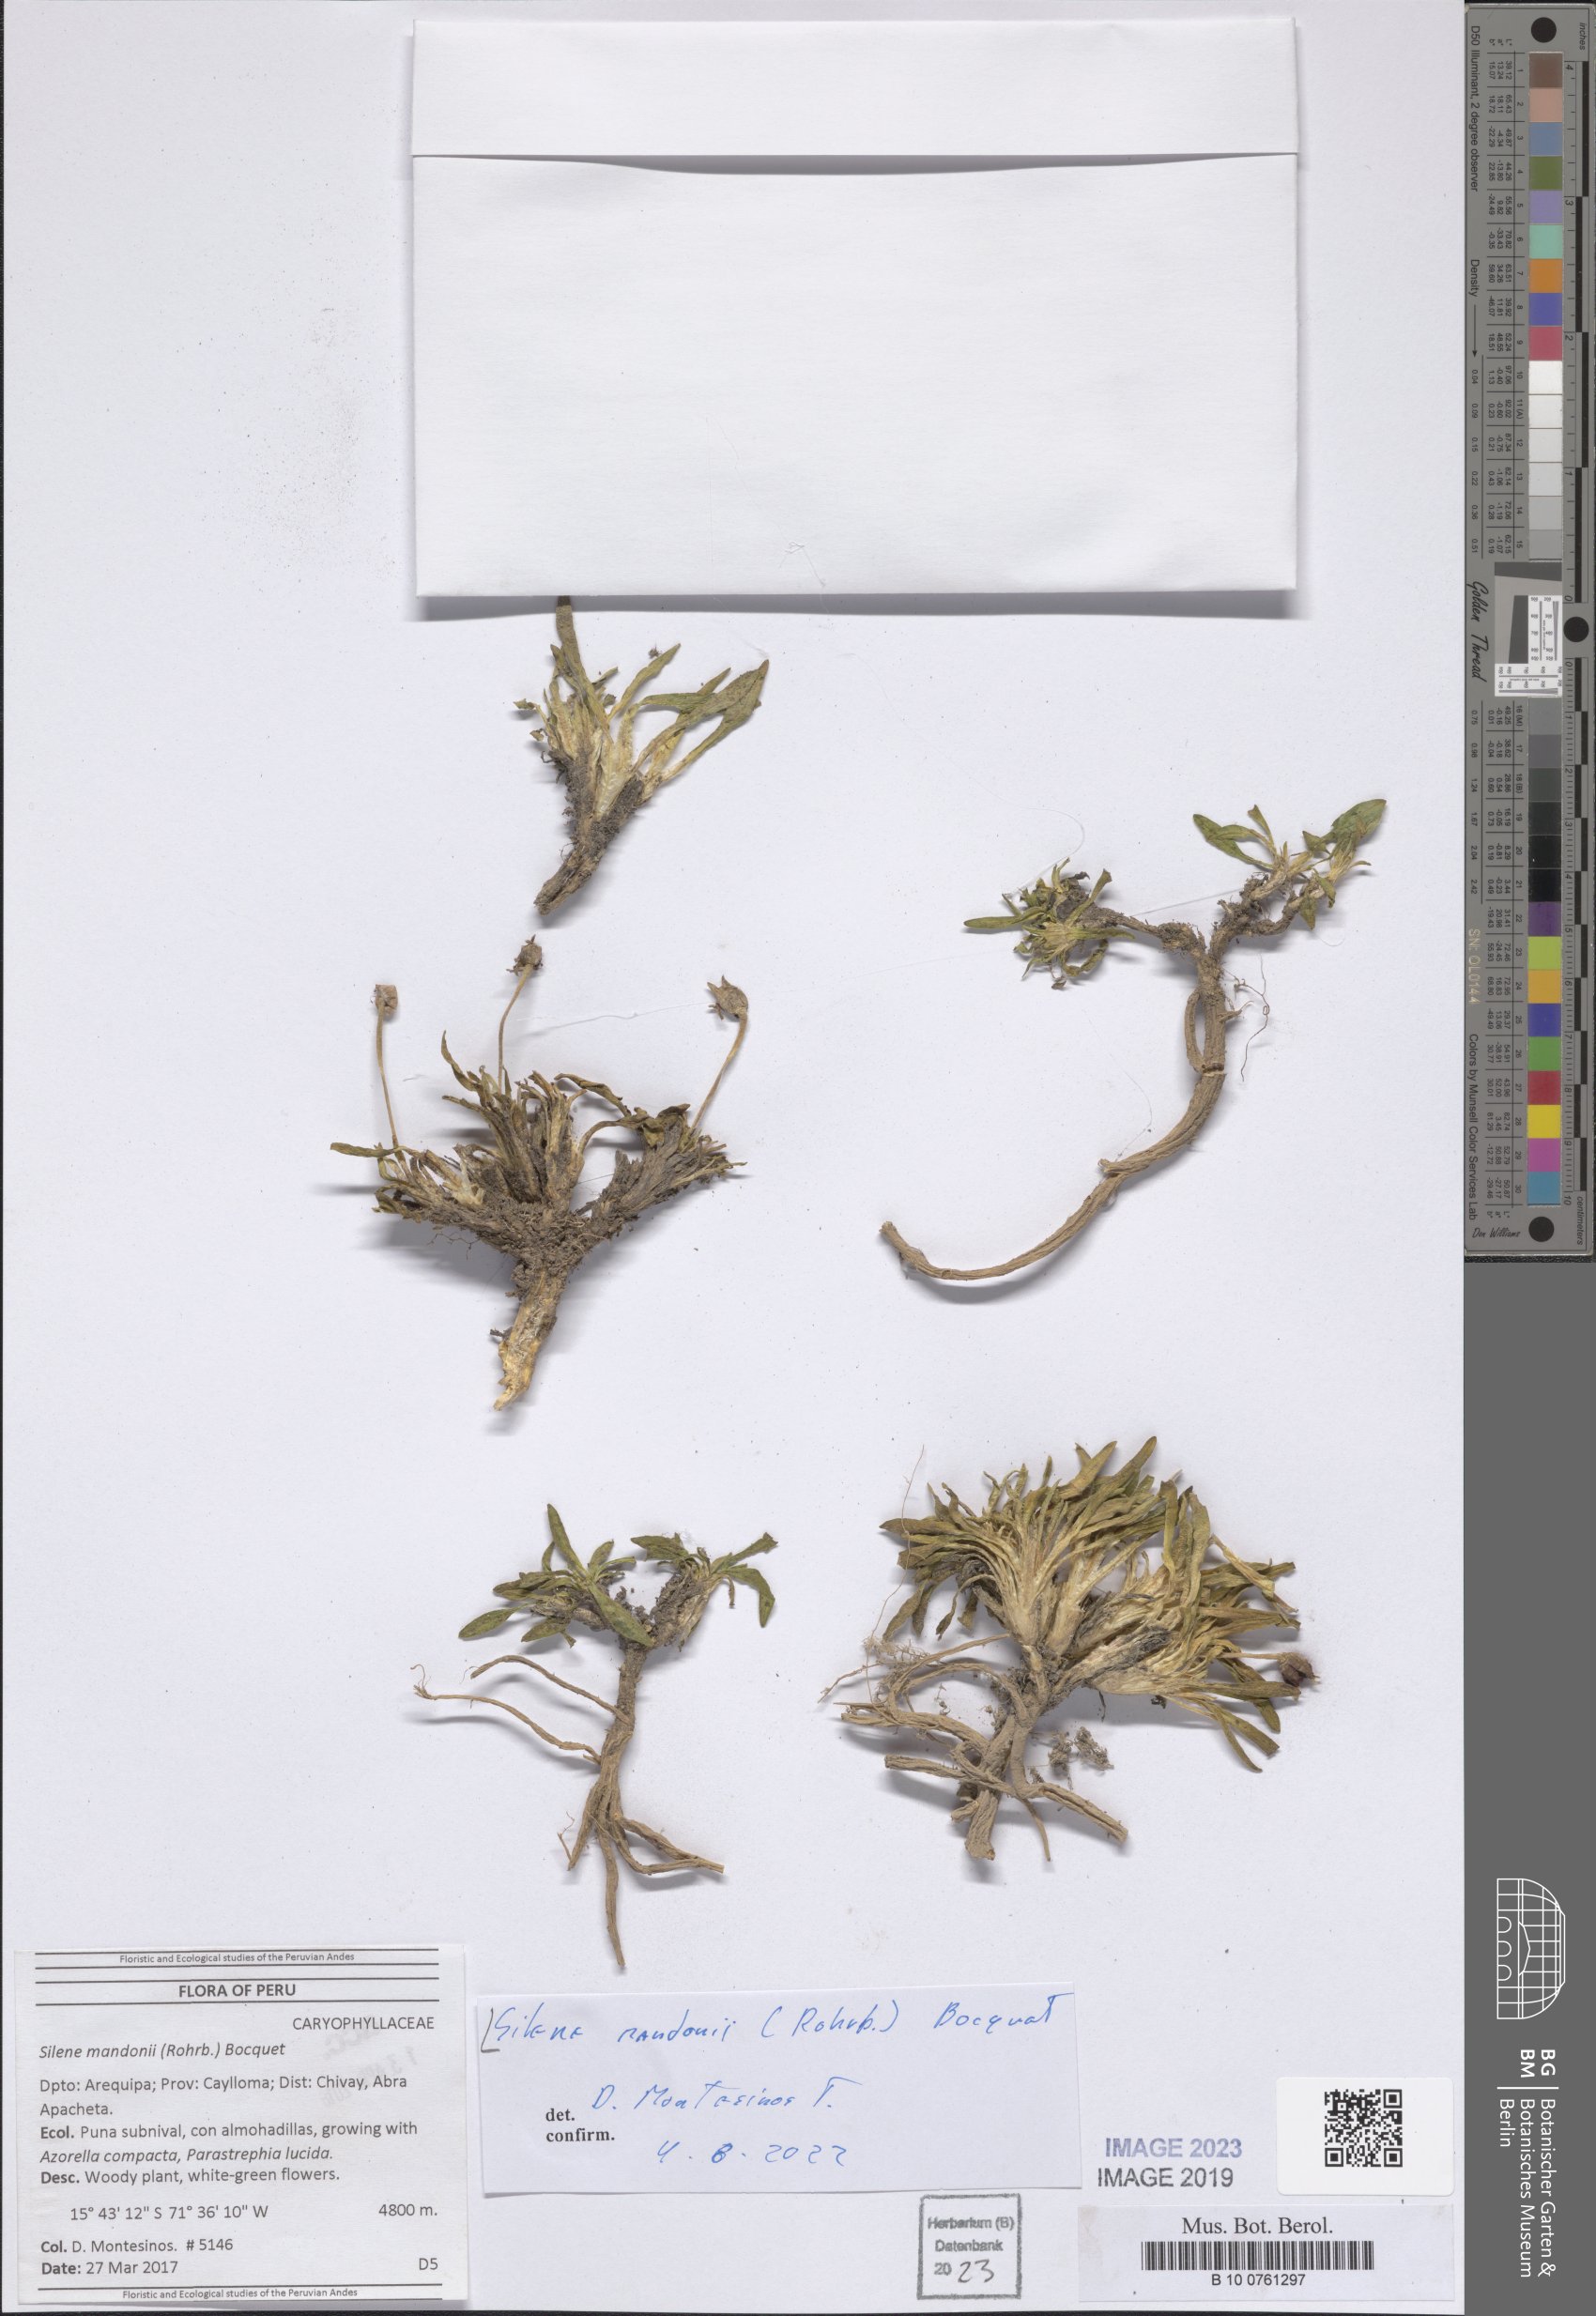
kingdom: Plantae
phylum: Tracheophyta
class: Magnoliopsida
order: Caryophyllales
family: Caryophyllaceae
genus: Silene
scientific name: Silene mandonii
